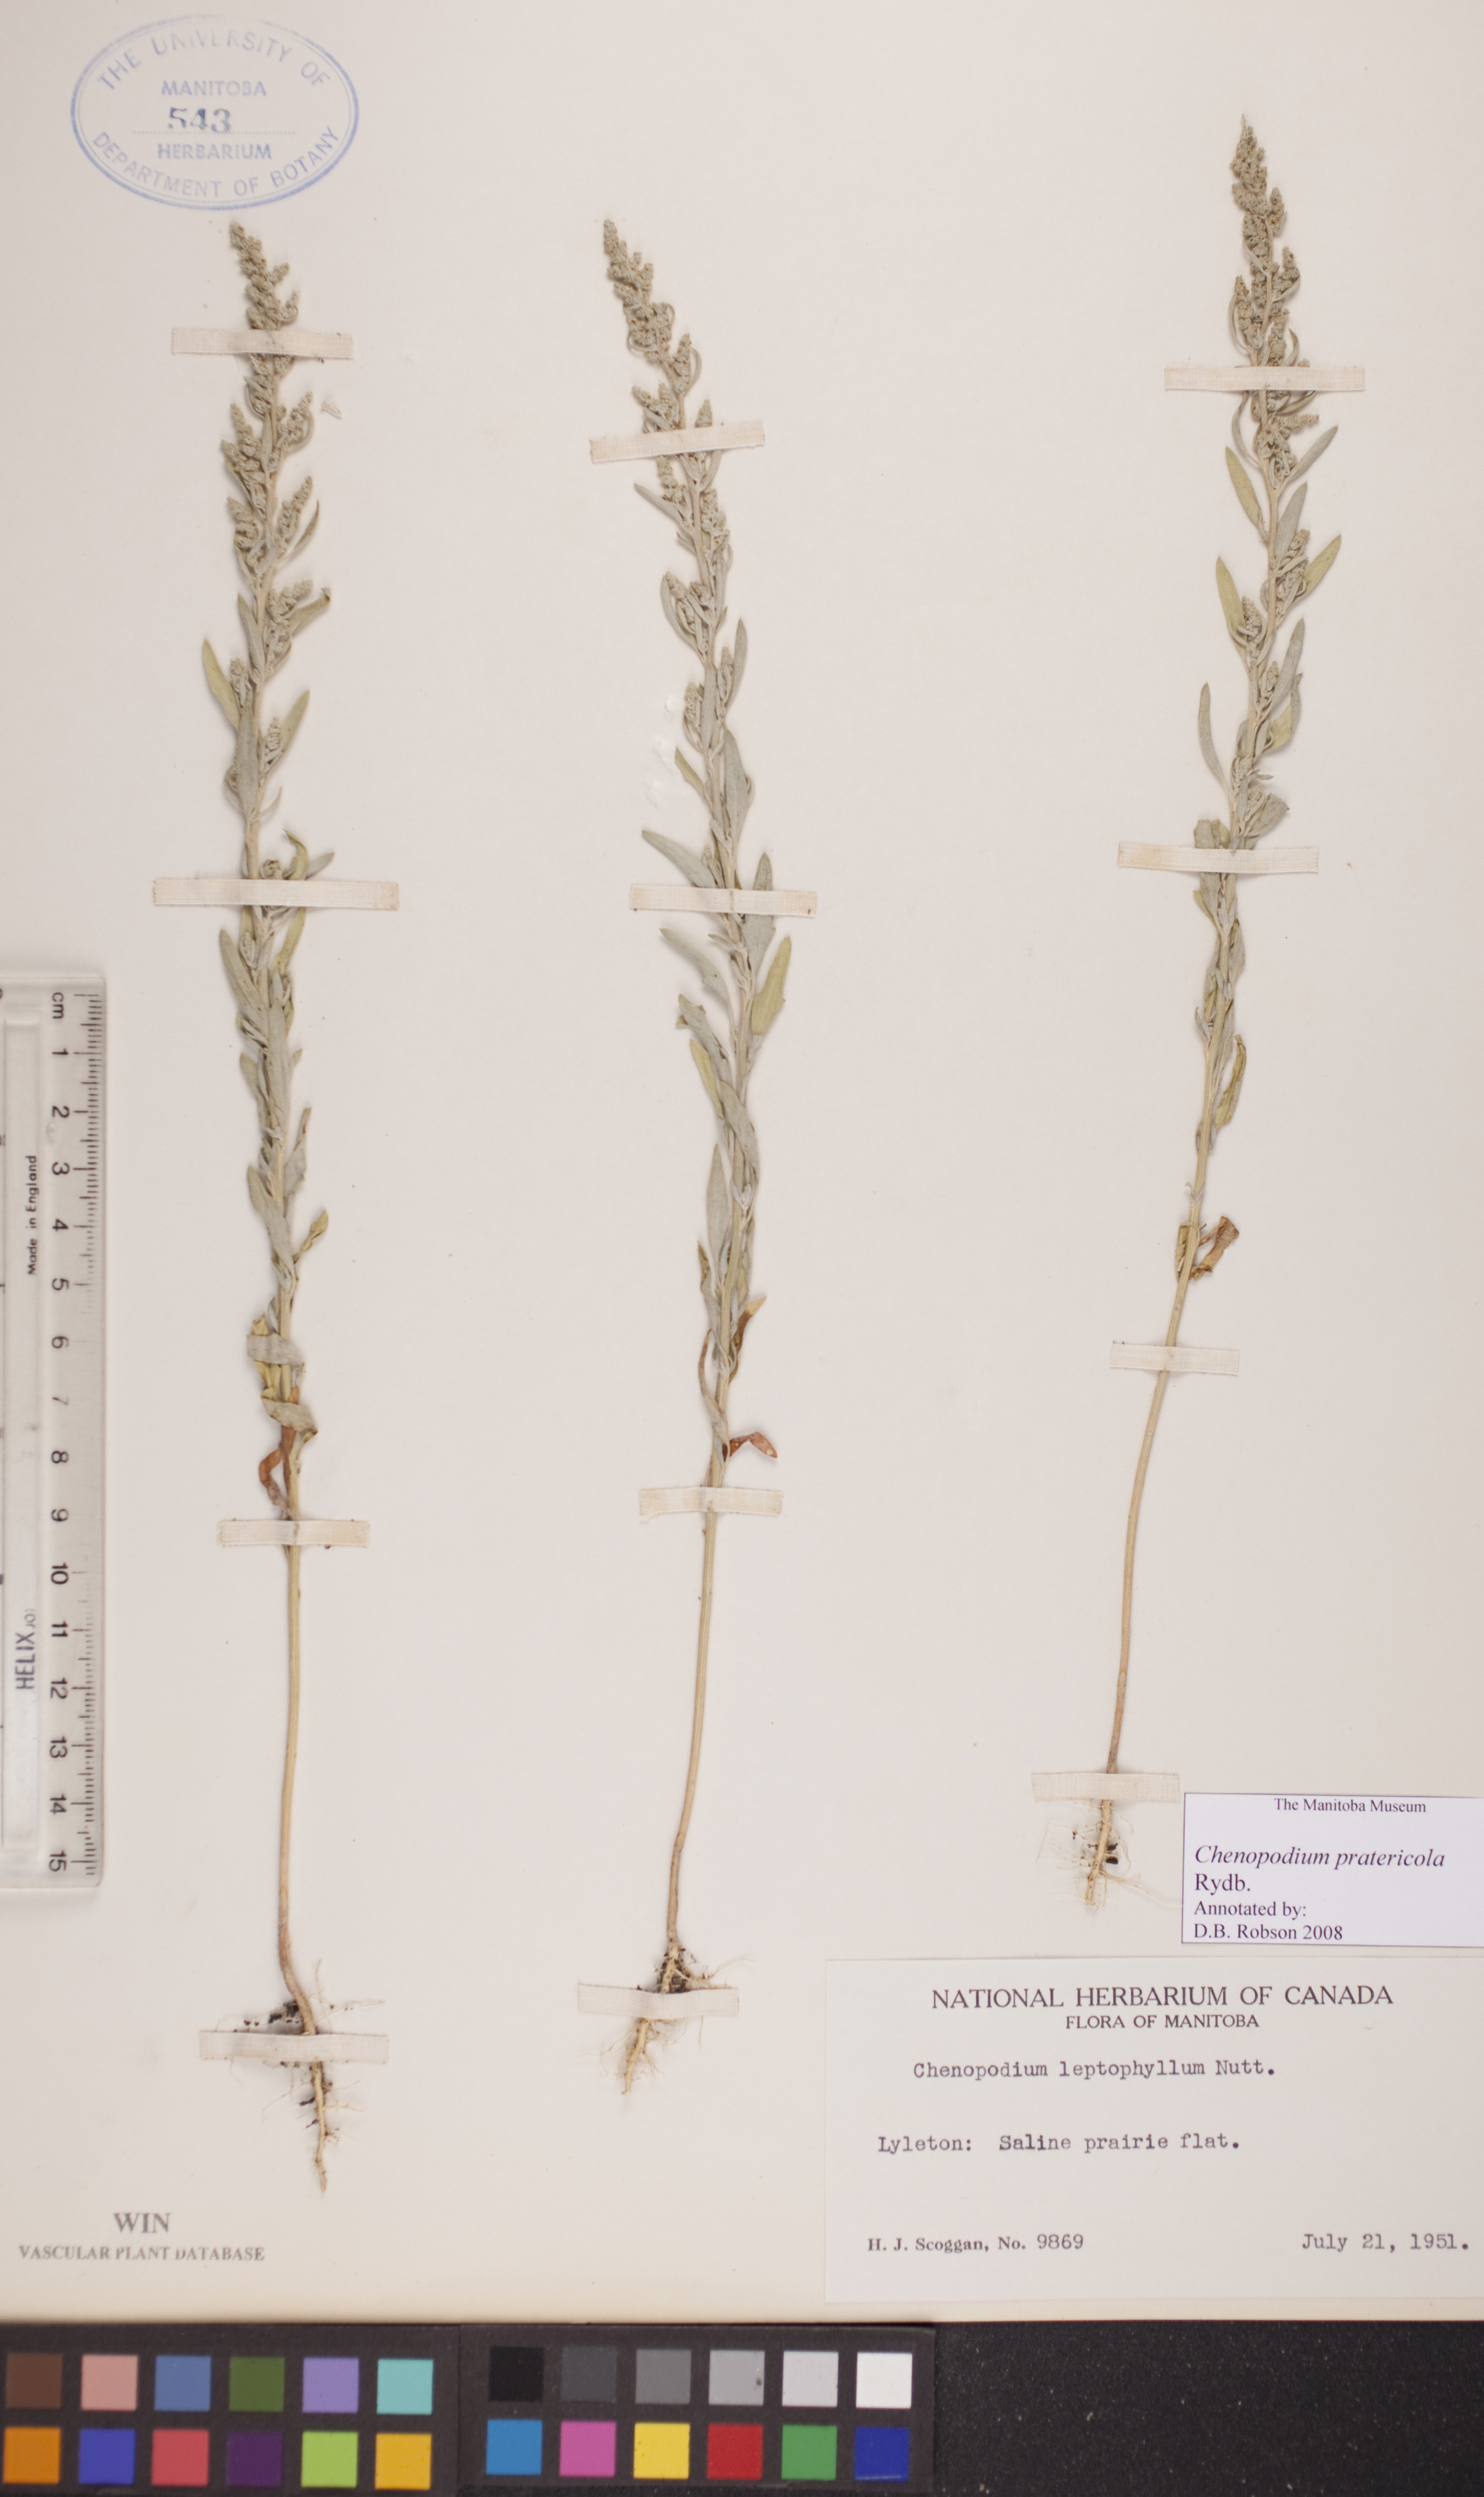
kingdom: Plantae
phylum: Tracheophyta
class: Magnoliopsida
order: Caryophyllales
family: Amaranthaceae
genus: Chenopodium
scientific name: Chenopodium pratericola
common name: Desert goosefoot
